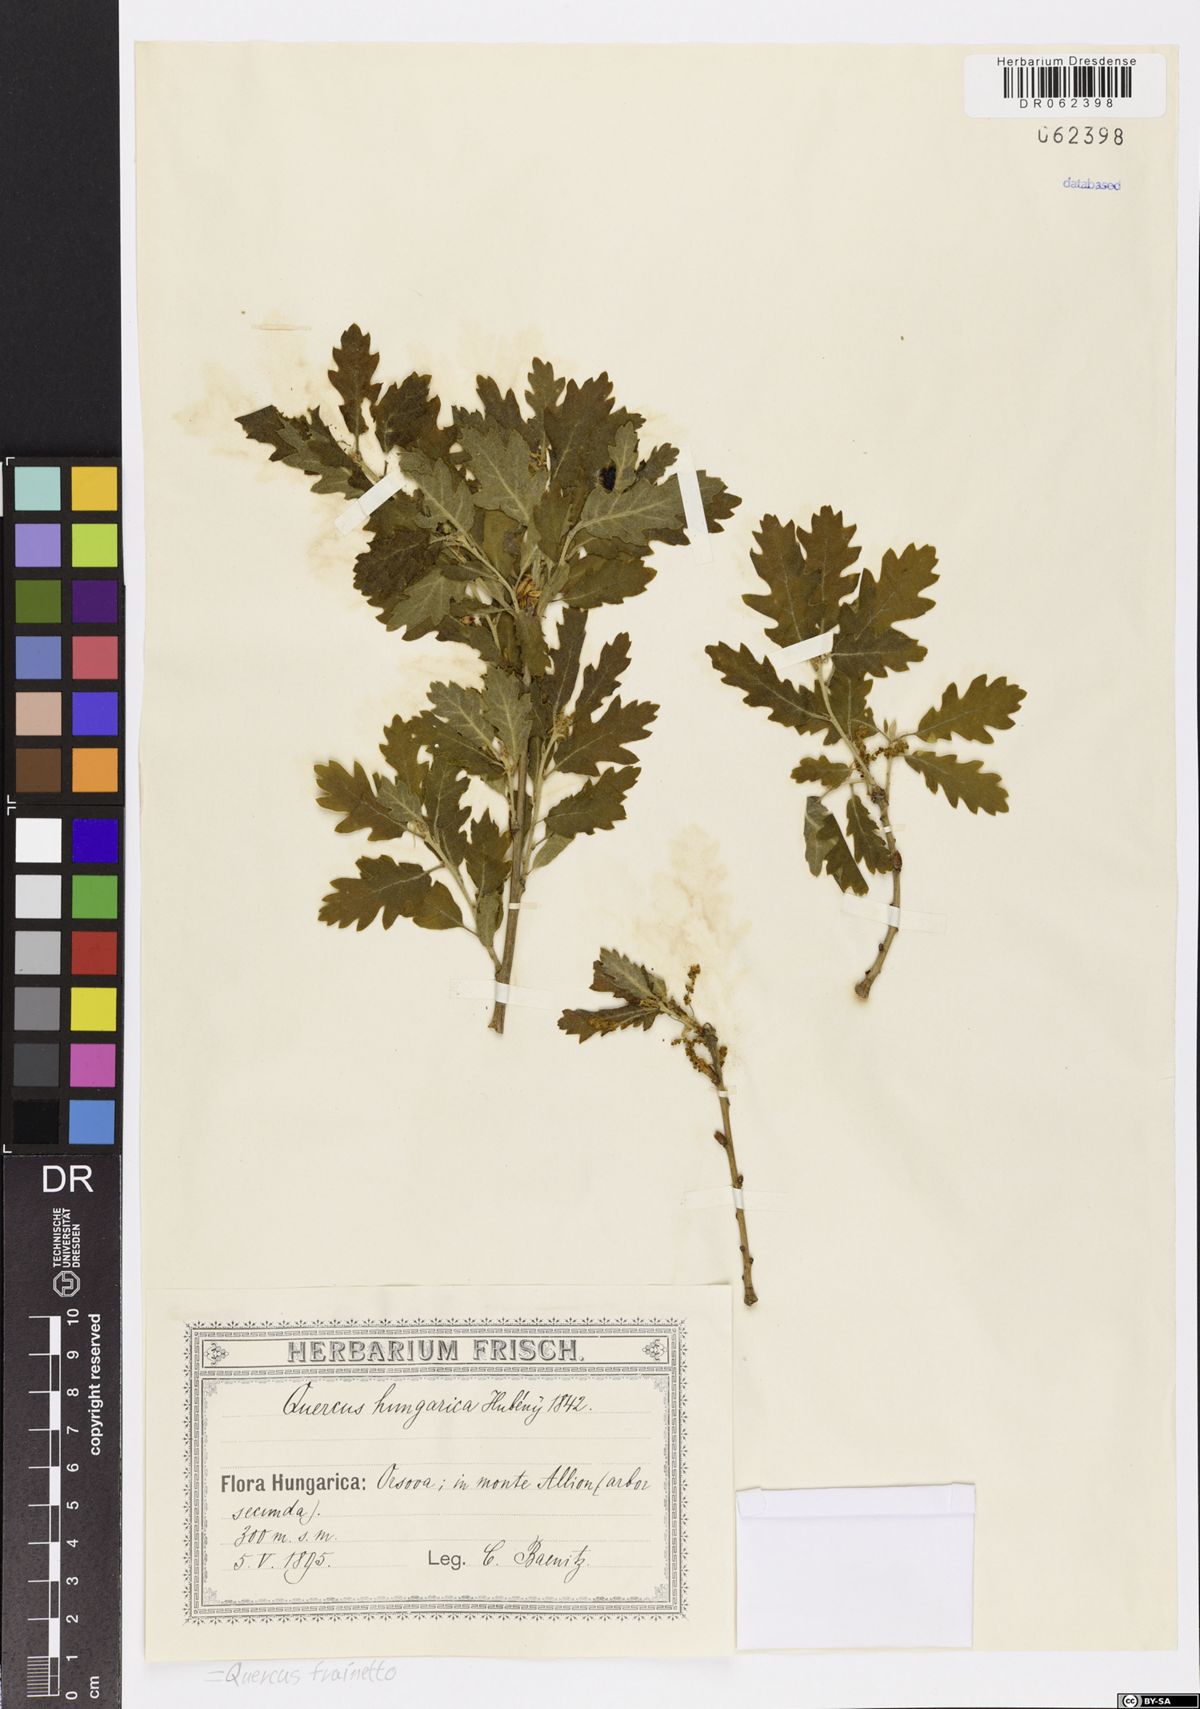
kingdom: Plantae
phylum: Tracheophyta
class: Magnoliopsida
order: Fagales
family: Fagaceae
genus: Quercus
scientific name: Quercus conferta
